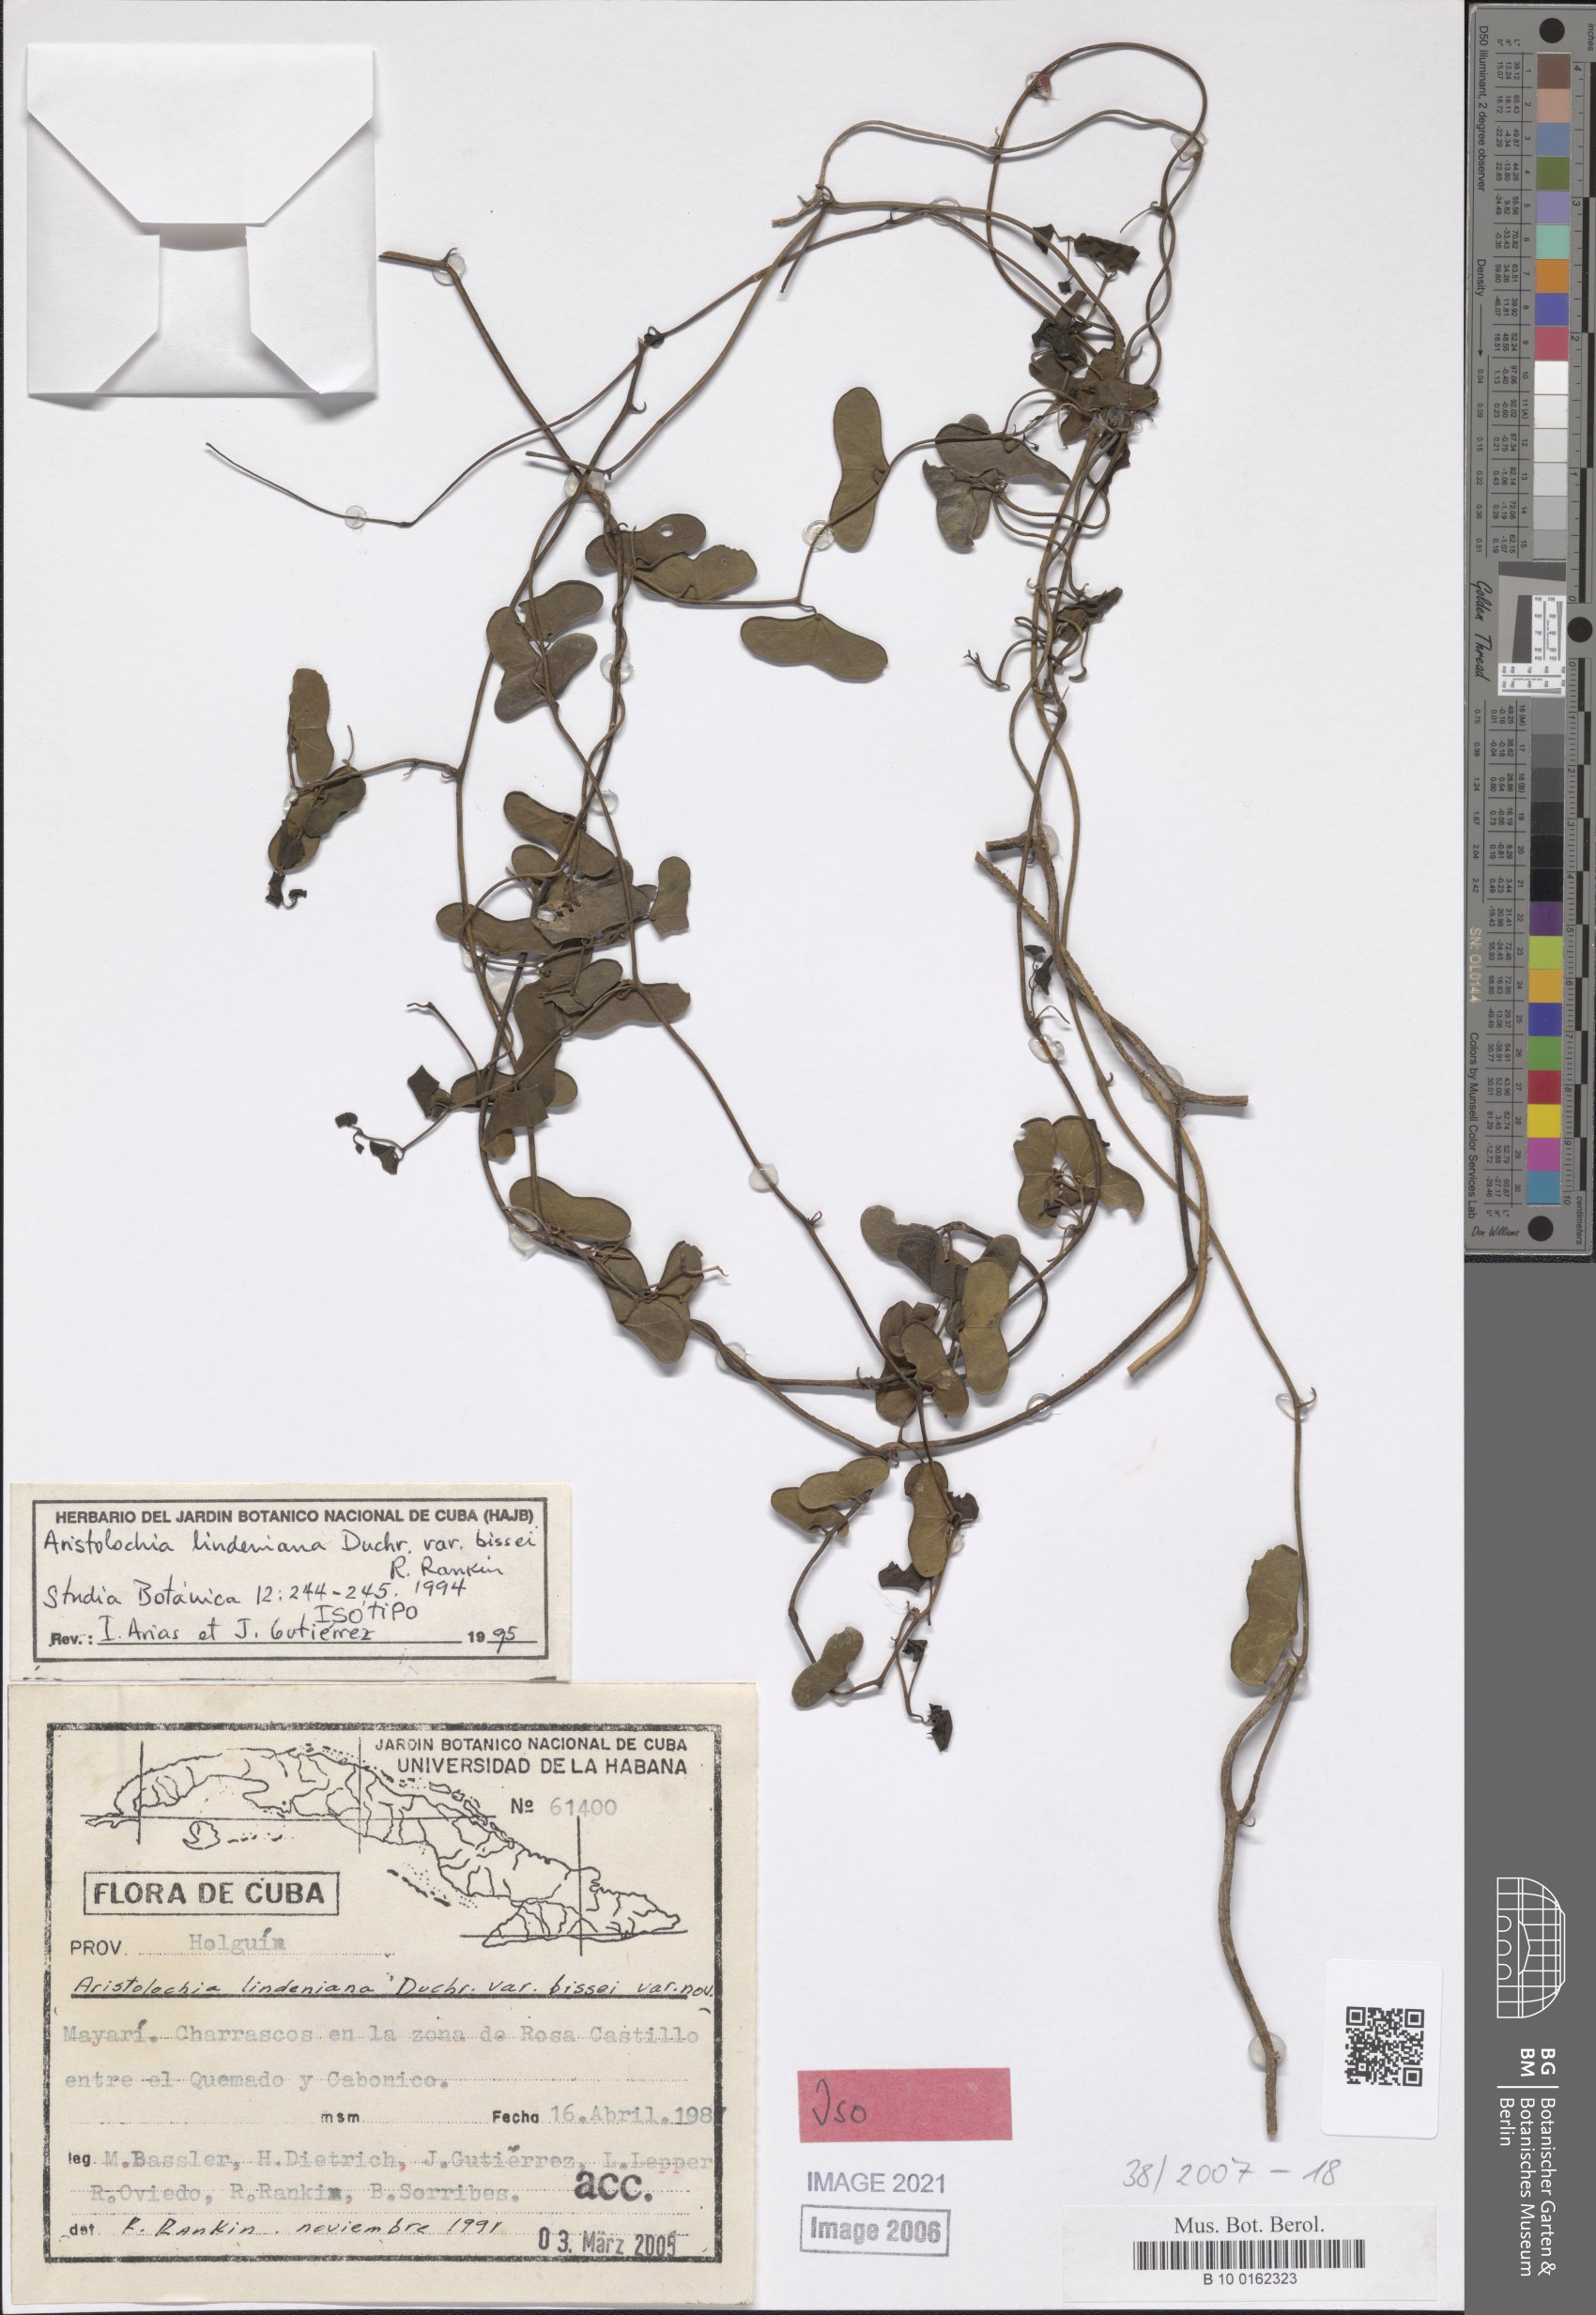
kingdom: Plantae
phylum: Tracheophyta
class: Magnoliopsida
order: Piperales
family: Aristolochiaceae
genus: Aristolochia
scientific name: Aristolochia lindeniana
